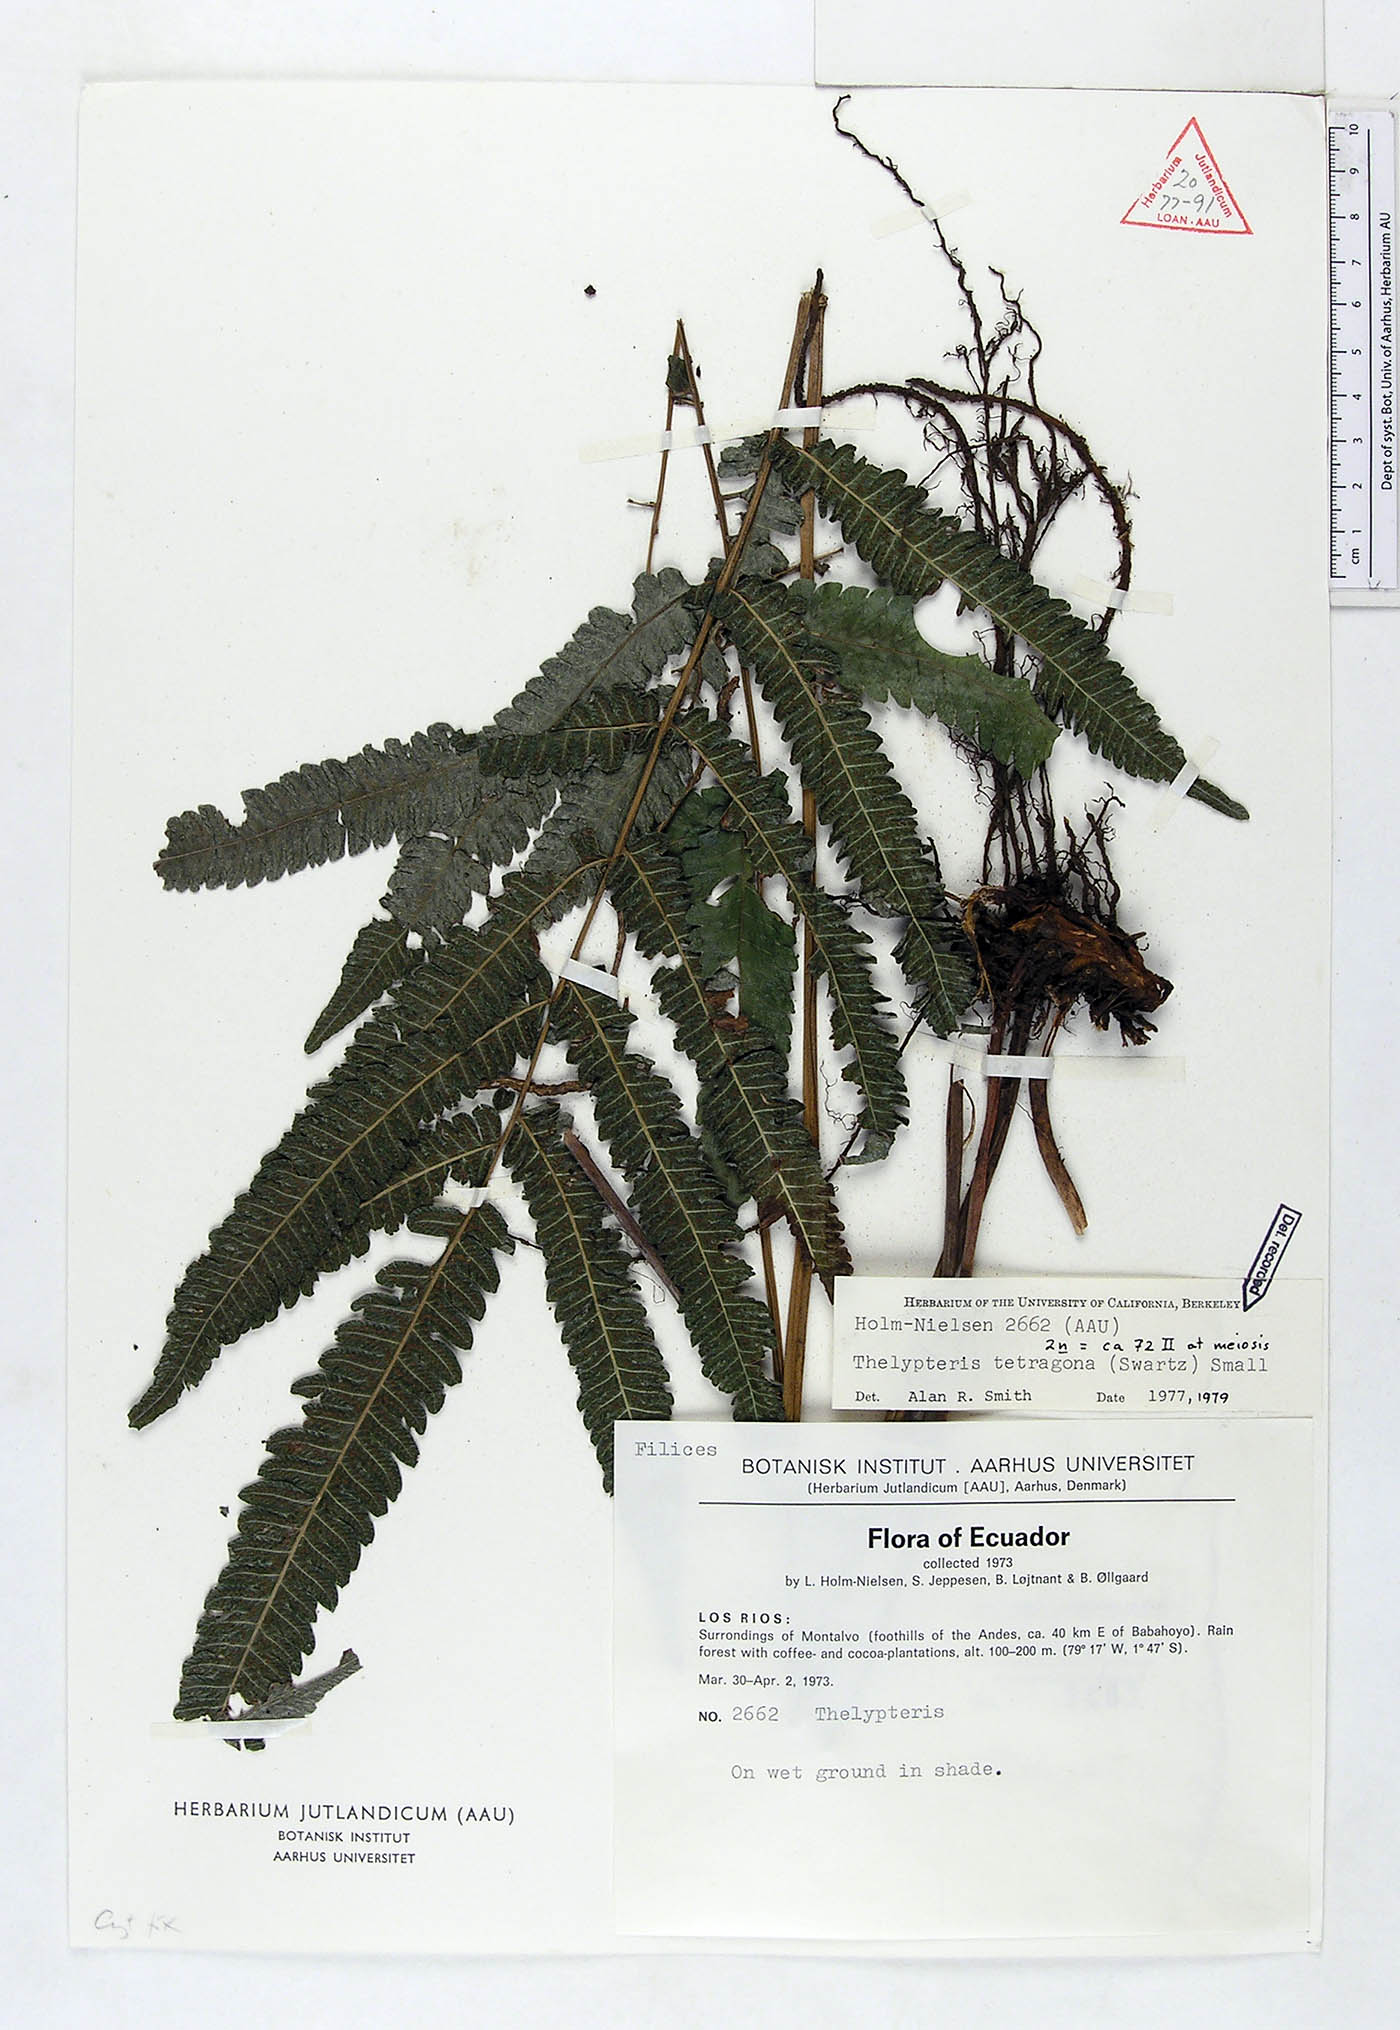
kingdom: Plantae
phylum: Tracheophyta
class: Polypodiopsida
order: Polypodiales
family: Thelypteridaceae
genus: Goniopteris
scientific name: Goniopteris tetragona
